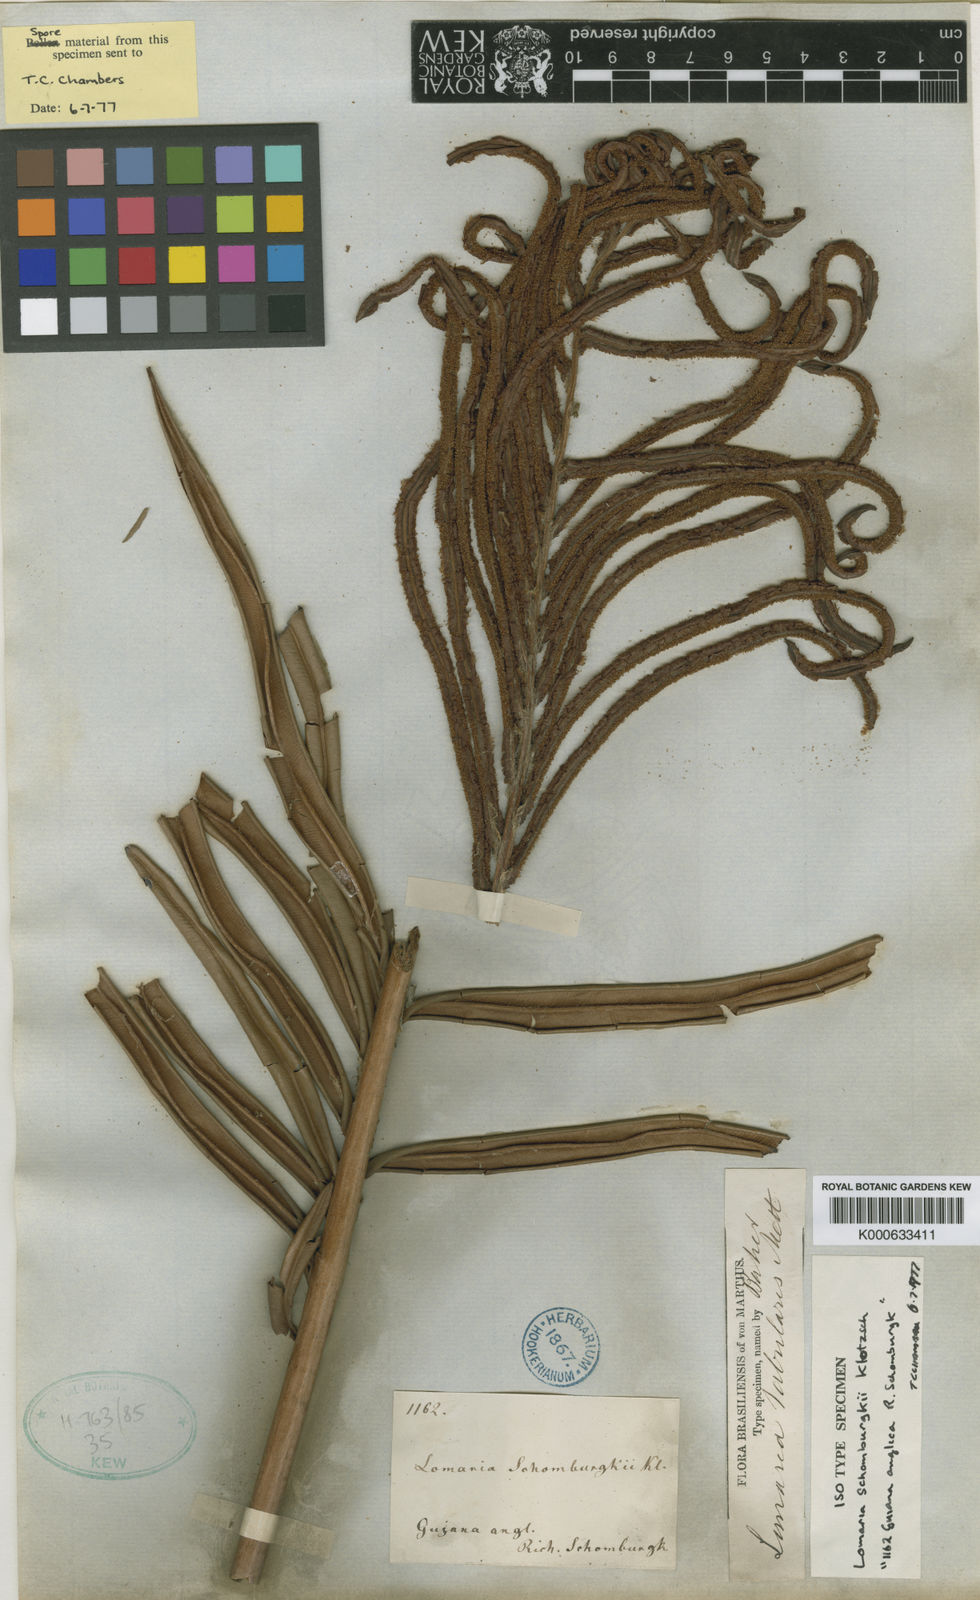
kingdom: Plantae
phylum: Tracheophyta
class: Polypodiopsida
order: Polypodiales
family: Blechnaceae
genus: Lomariocycas
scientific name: Lomariocycas schomburgkii
